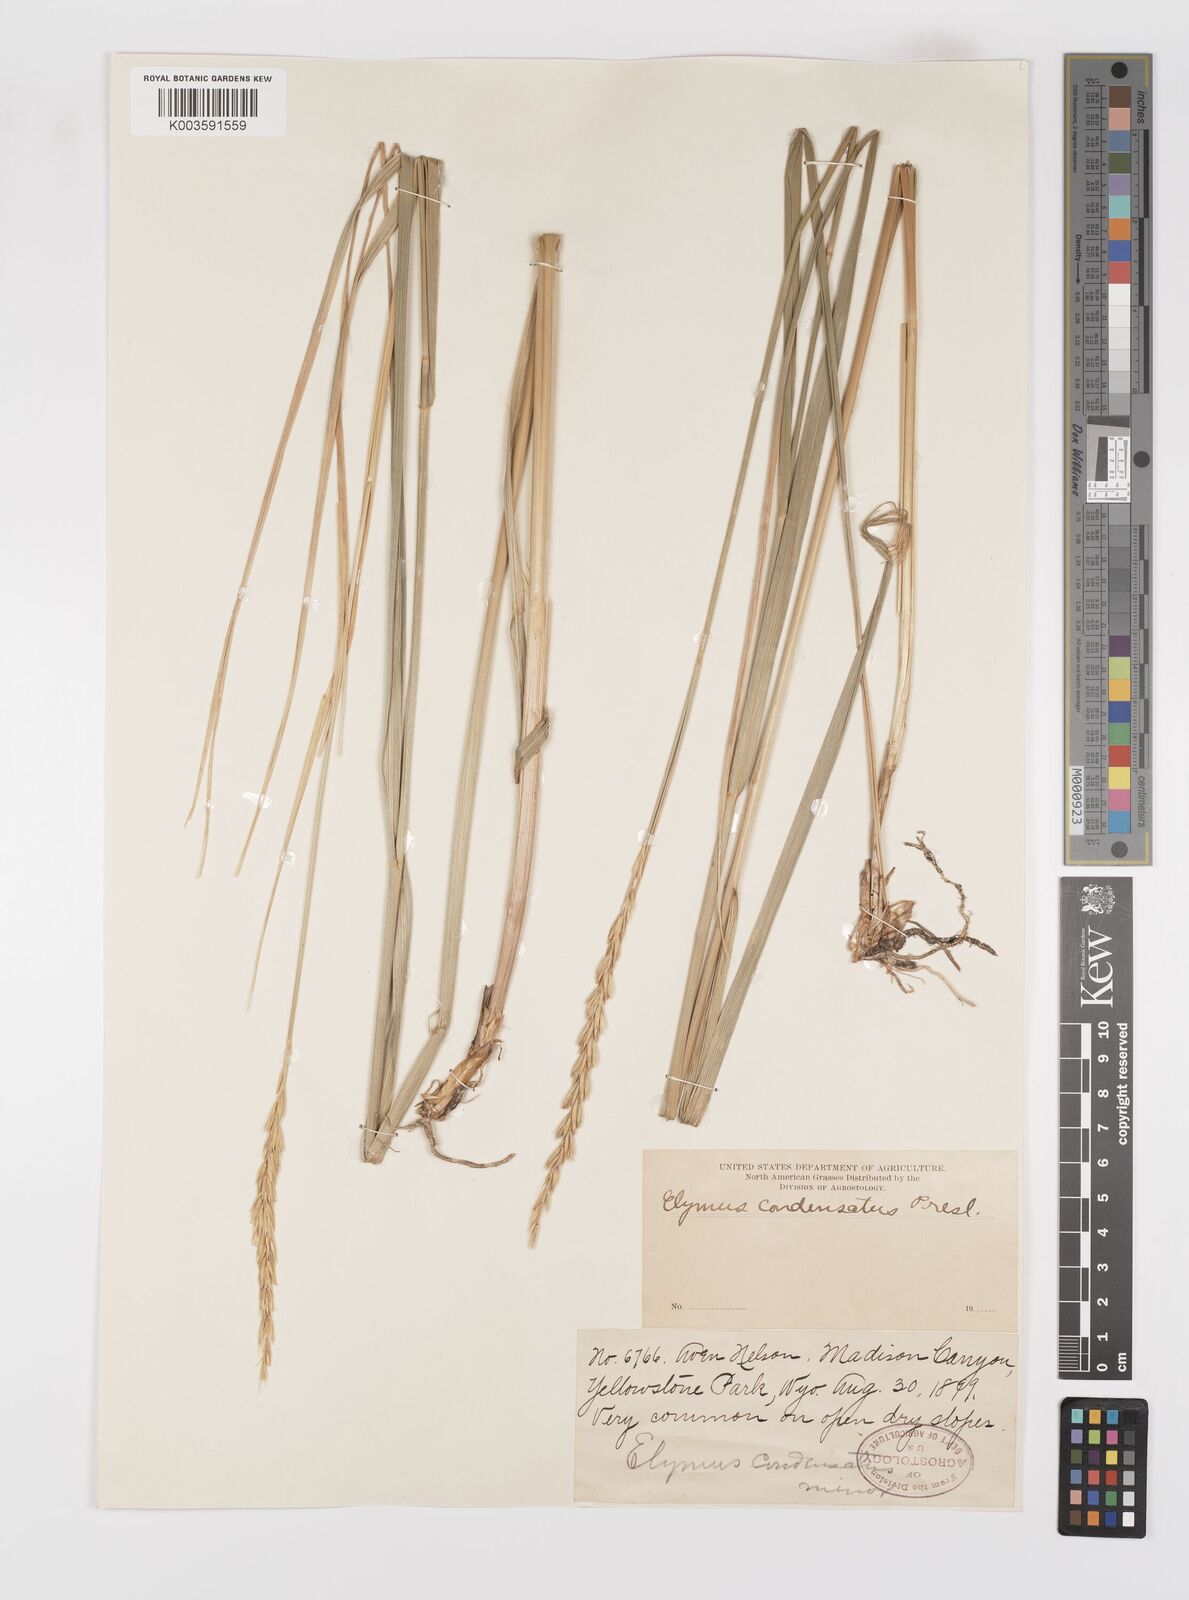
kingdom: Plantae
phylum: Tracheophyta
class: Liliopsida
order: Poales
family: Poaceae
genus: Leymus
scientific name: Leymus condensatus
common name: Giant wild rye
